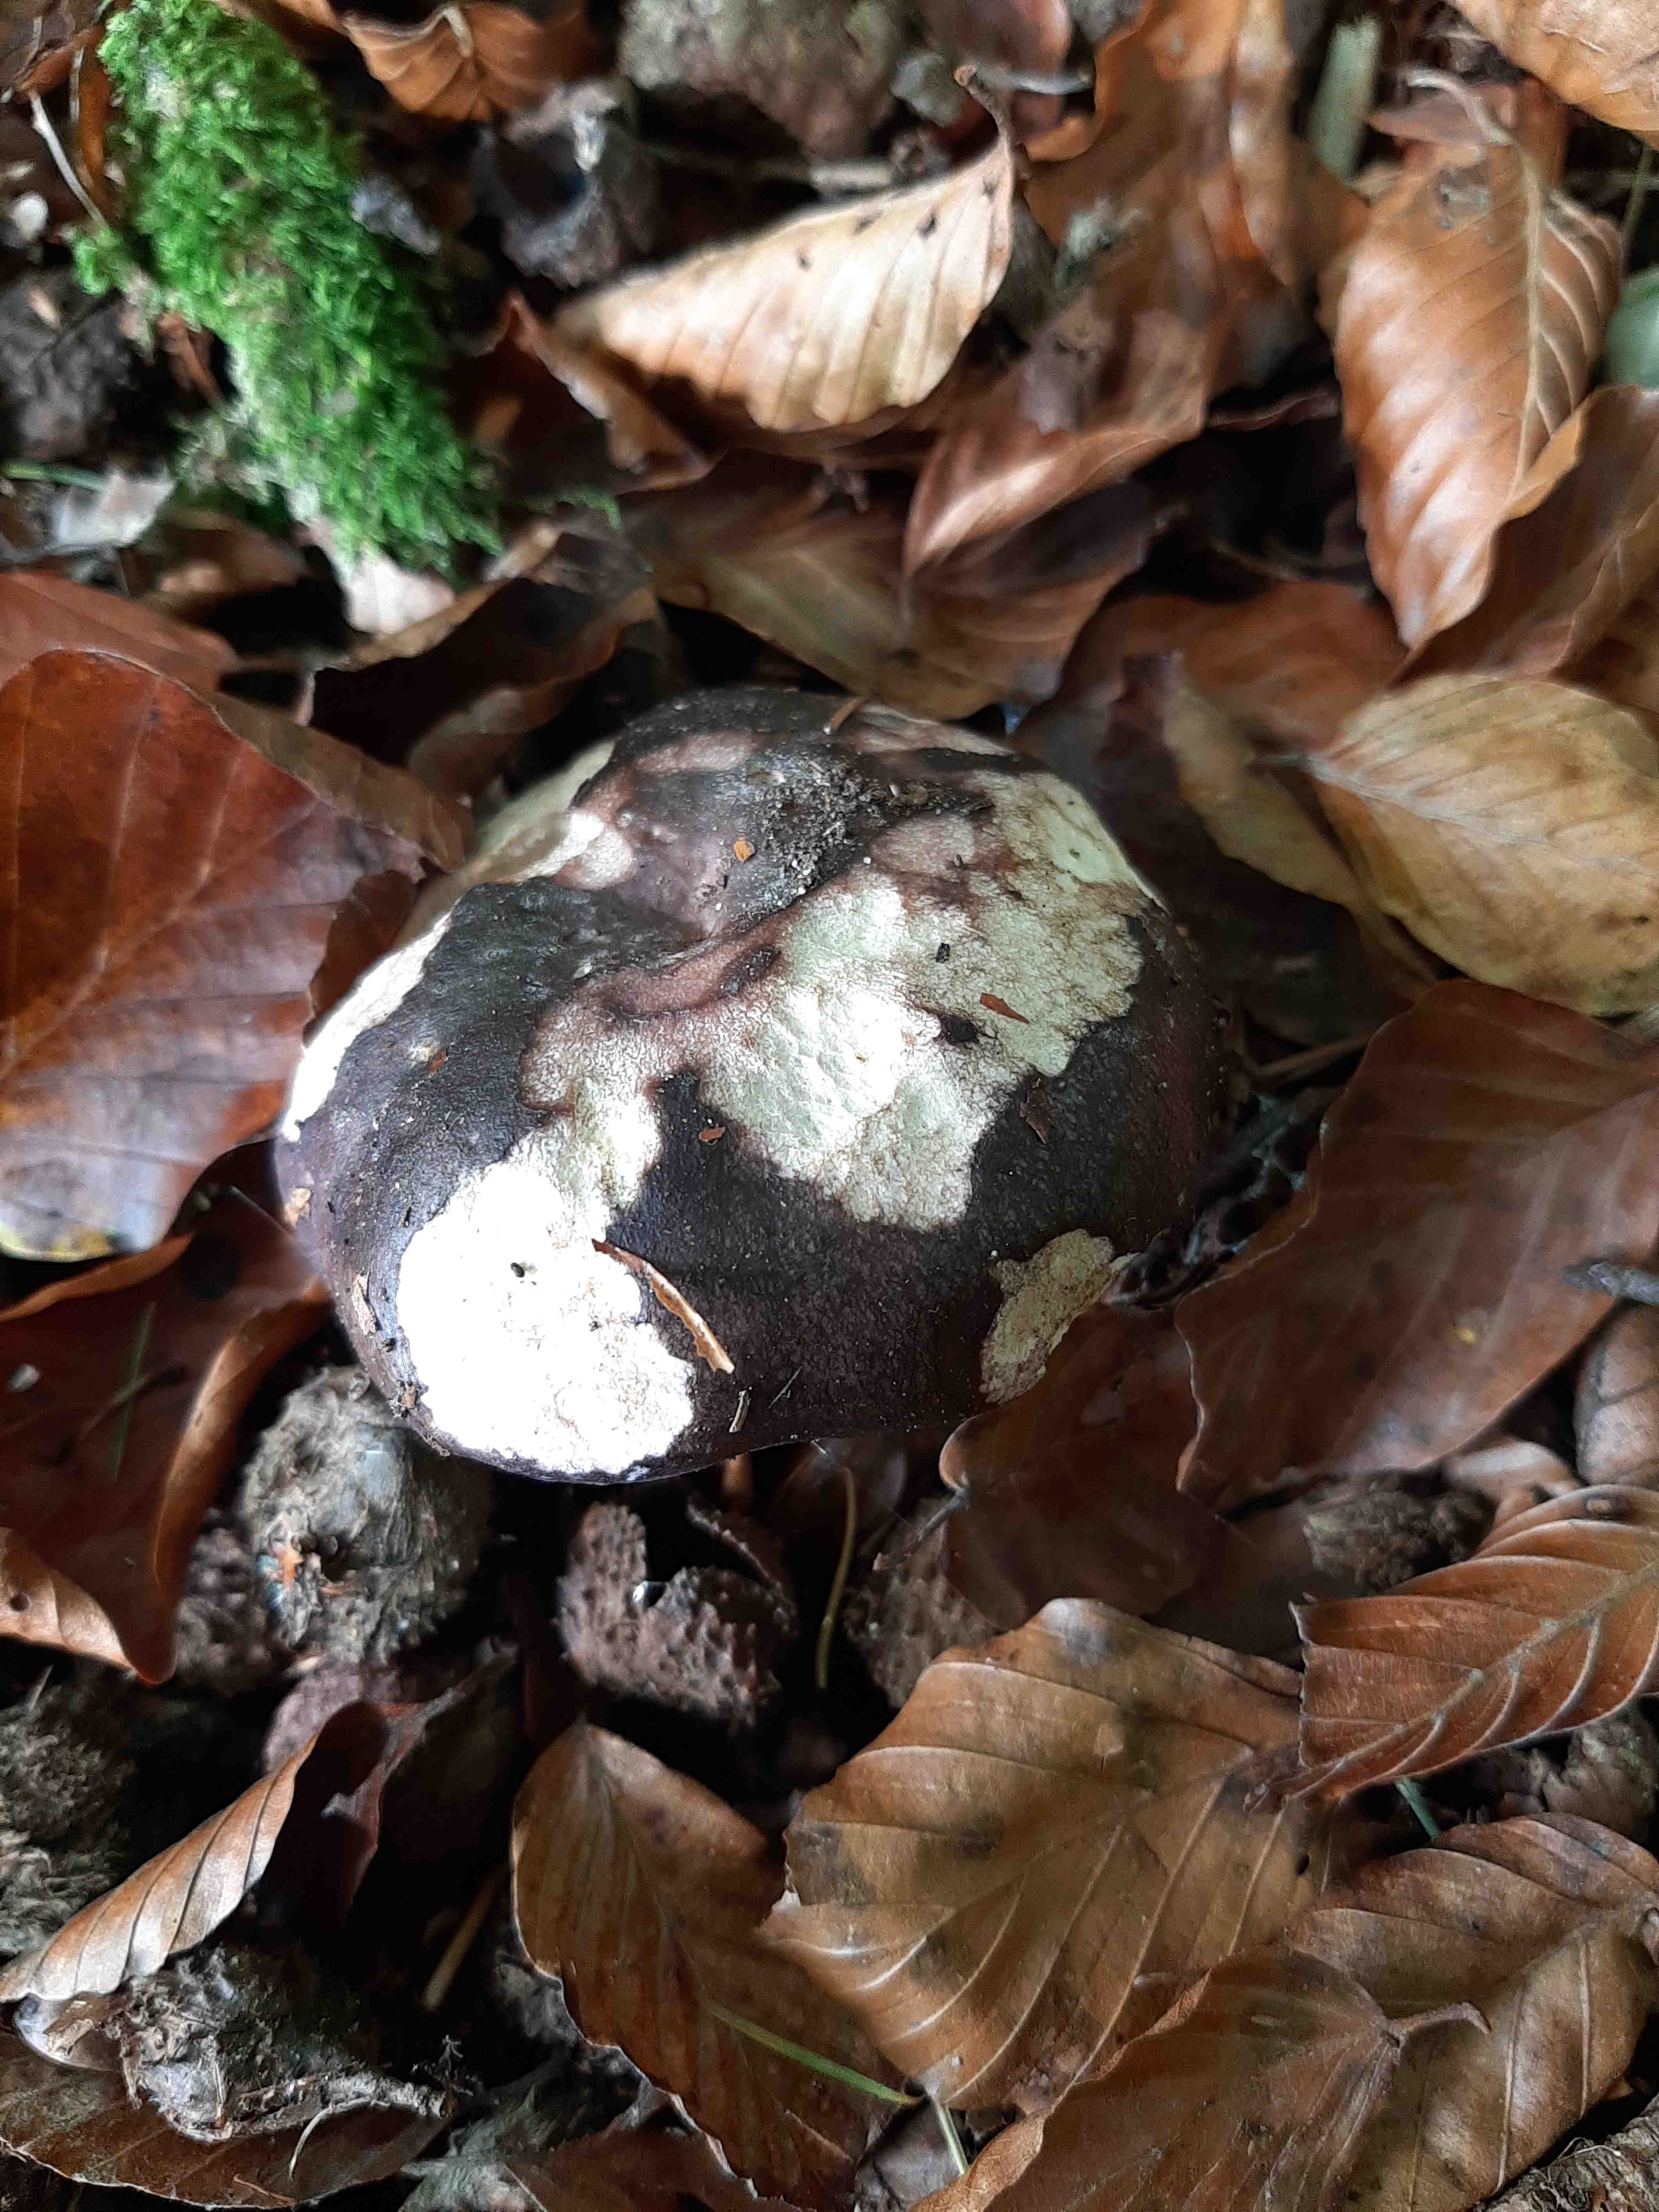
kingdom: Fungi
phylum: Basidiomycota
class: Agaricomycetes
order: Russulales
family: Russulaceae
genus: Russula
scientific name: Russula cyanoxantha
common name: broget skørhat
